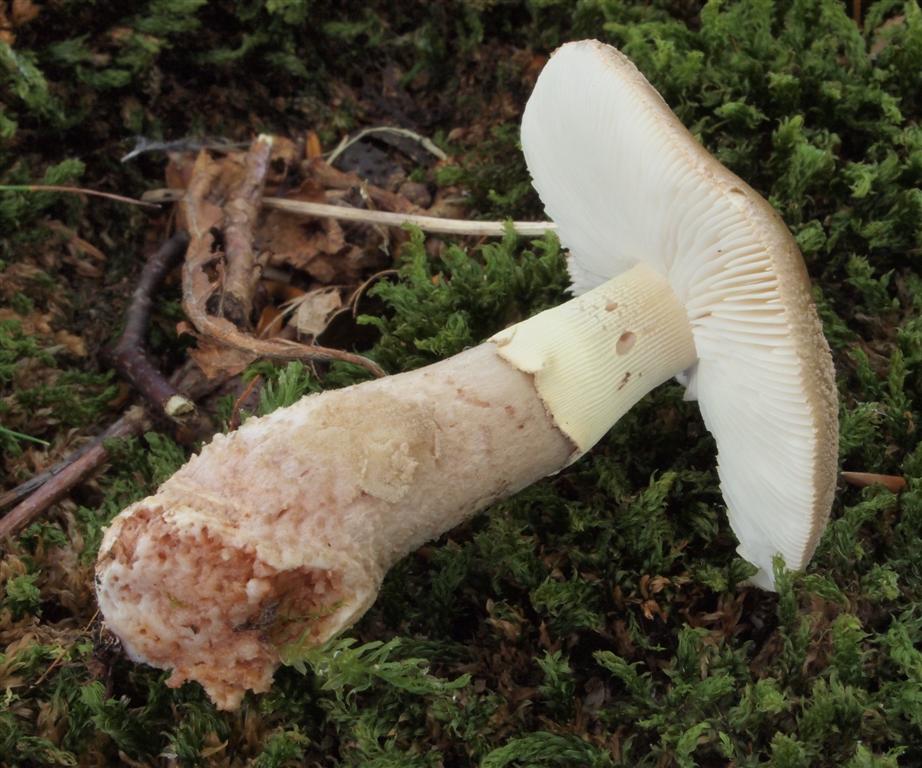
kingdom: Fungi
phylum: Basidiomycota
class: Agaricomycetes
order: Agaricales
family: Amanitaceae
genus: Amanita
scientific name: Amanita rubescens
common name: Blusher
